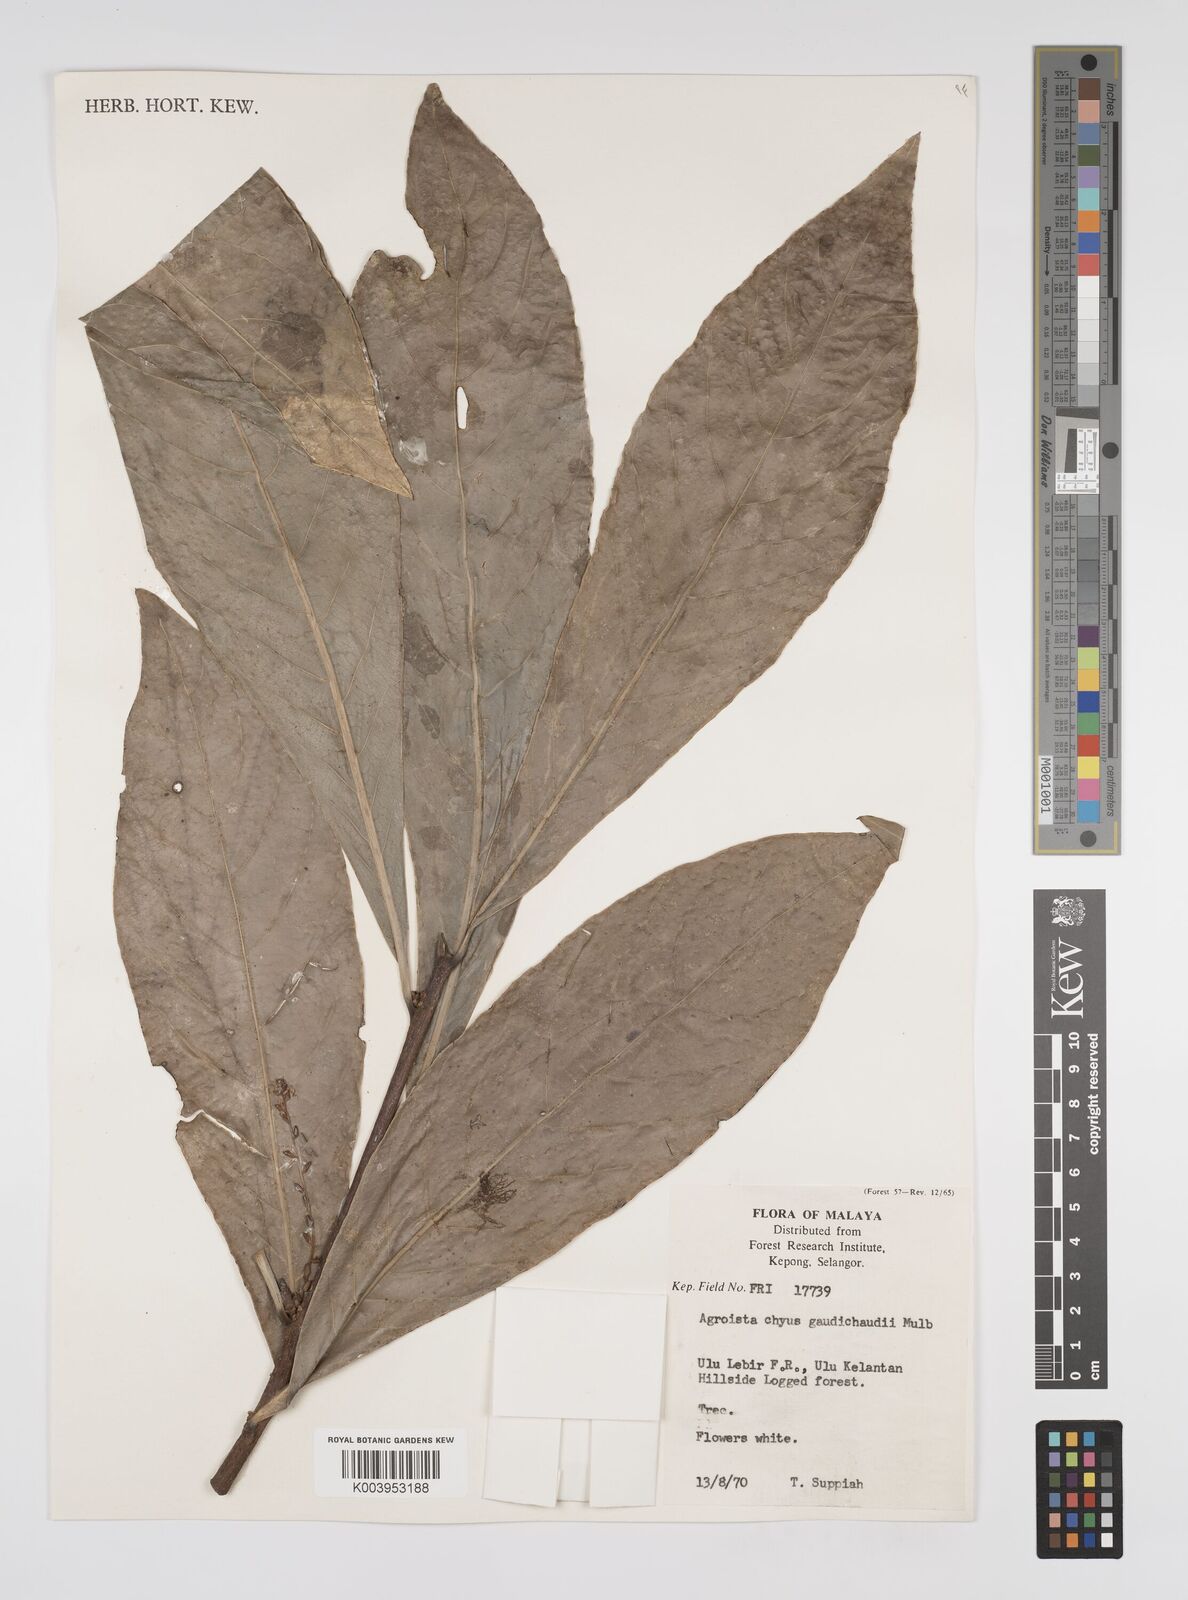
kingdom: Plantae
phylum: Tracheophyta
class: Magnoliopsida
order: Malpighiales
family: Euphorbiaceae
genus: Agrostistachys
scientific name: Agrostistachys gaudichaudii
